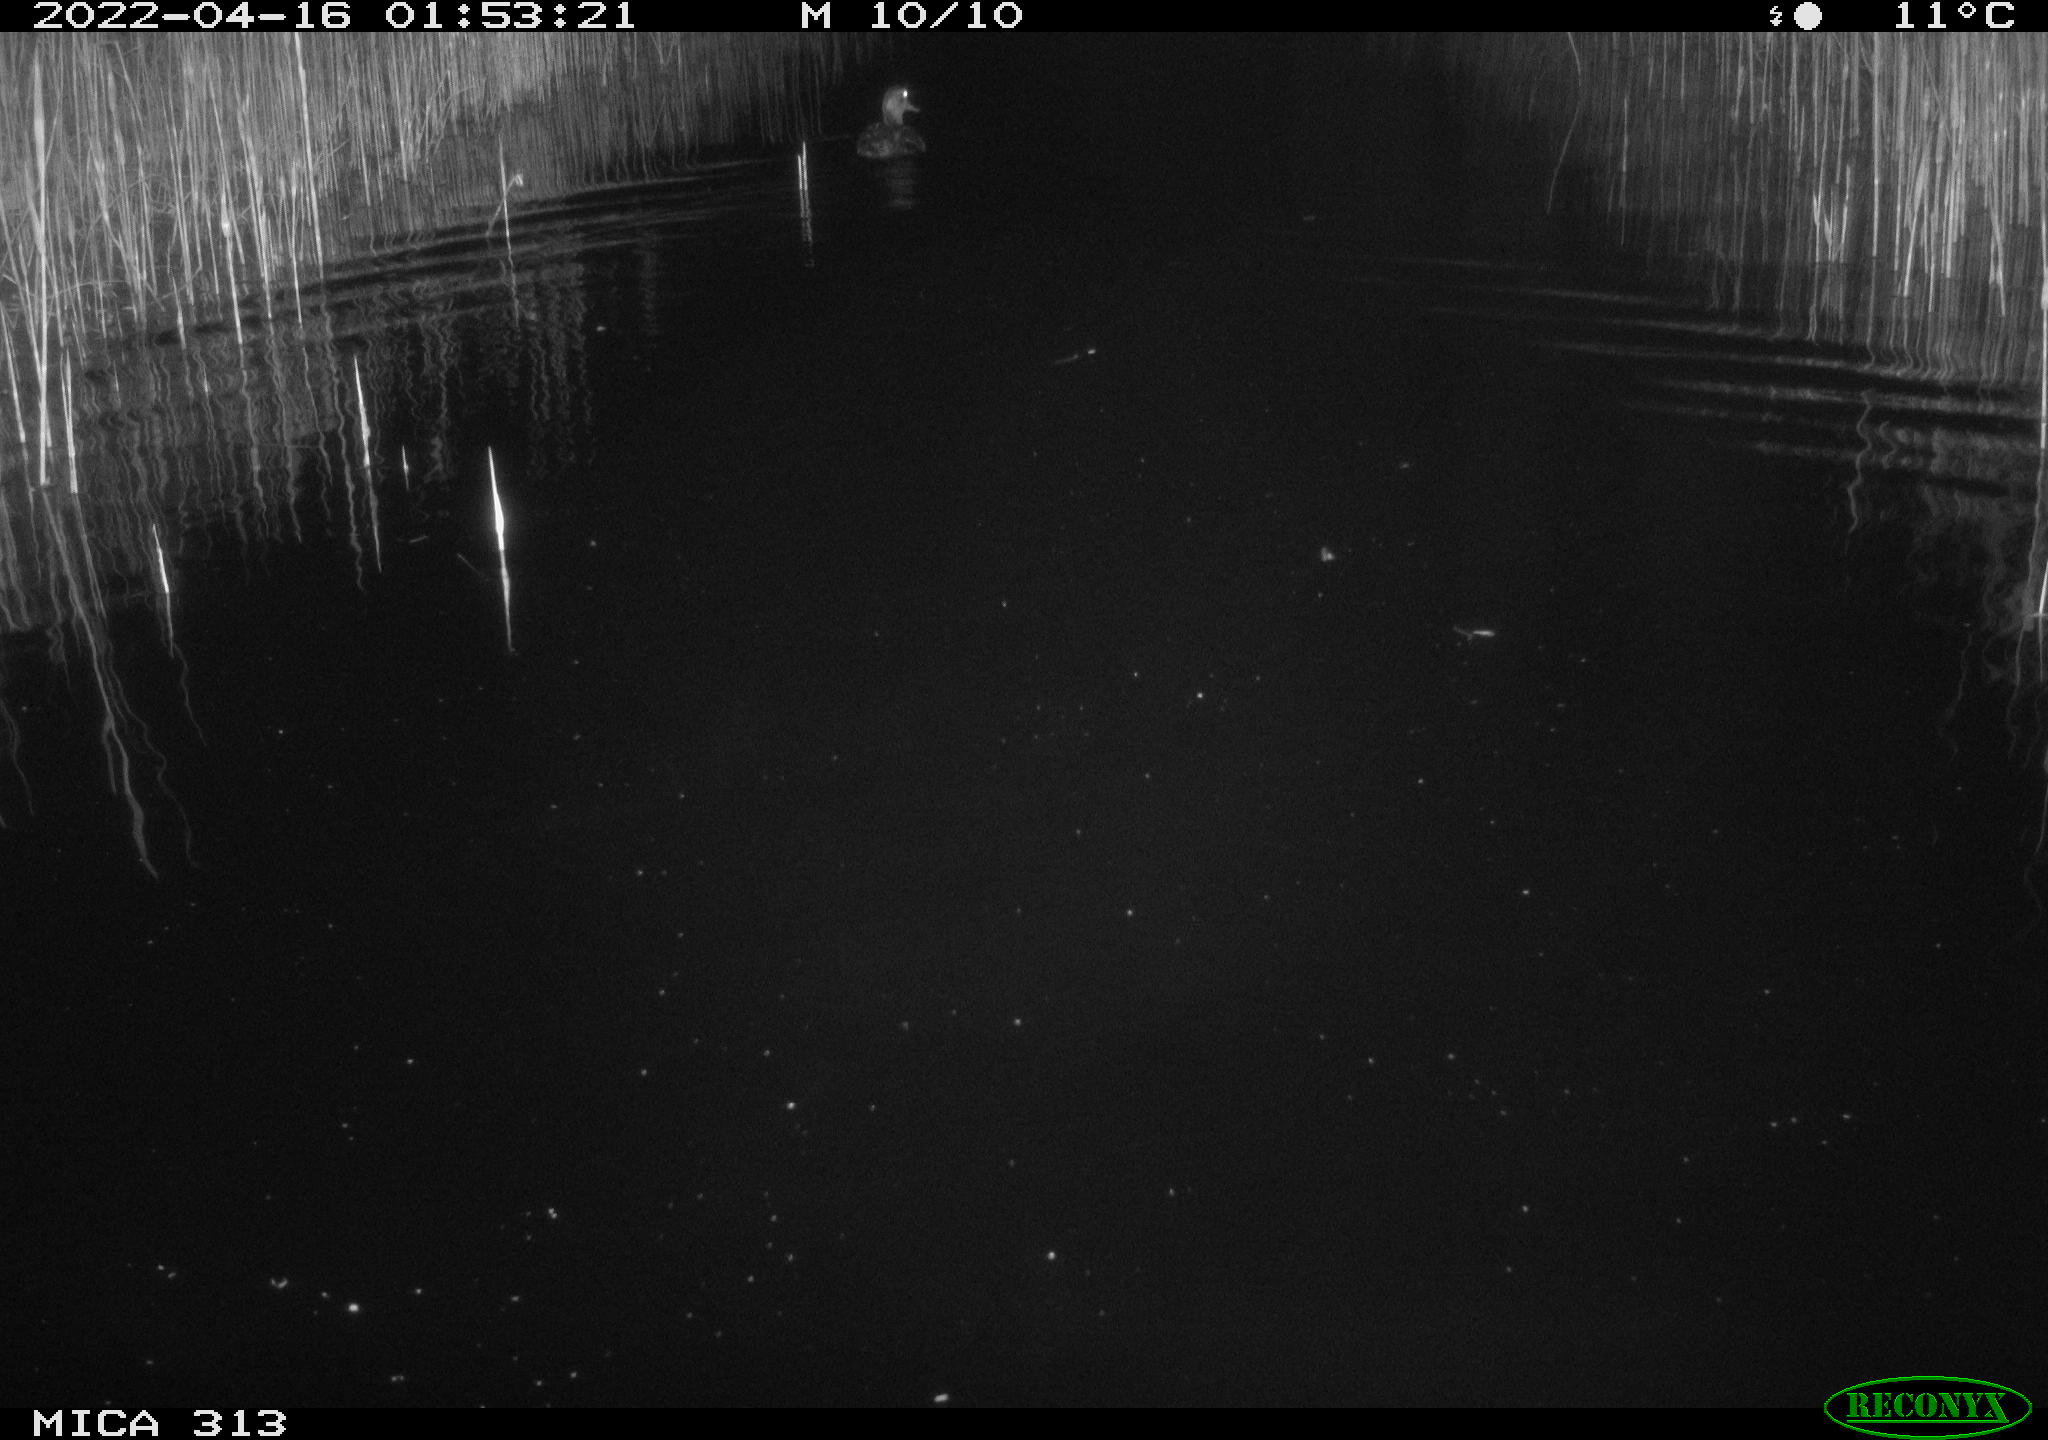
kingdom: Animalia
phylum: Chordata
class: Aves
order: Anseriformes
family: Anatidae
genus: Anas
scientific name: Anas platyrhynchos
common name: Mallard
